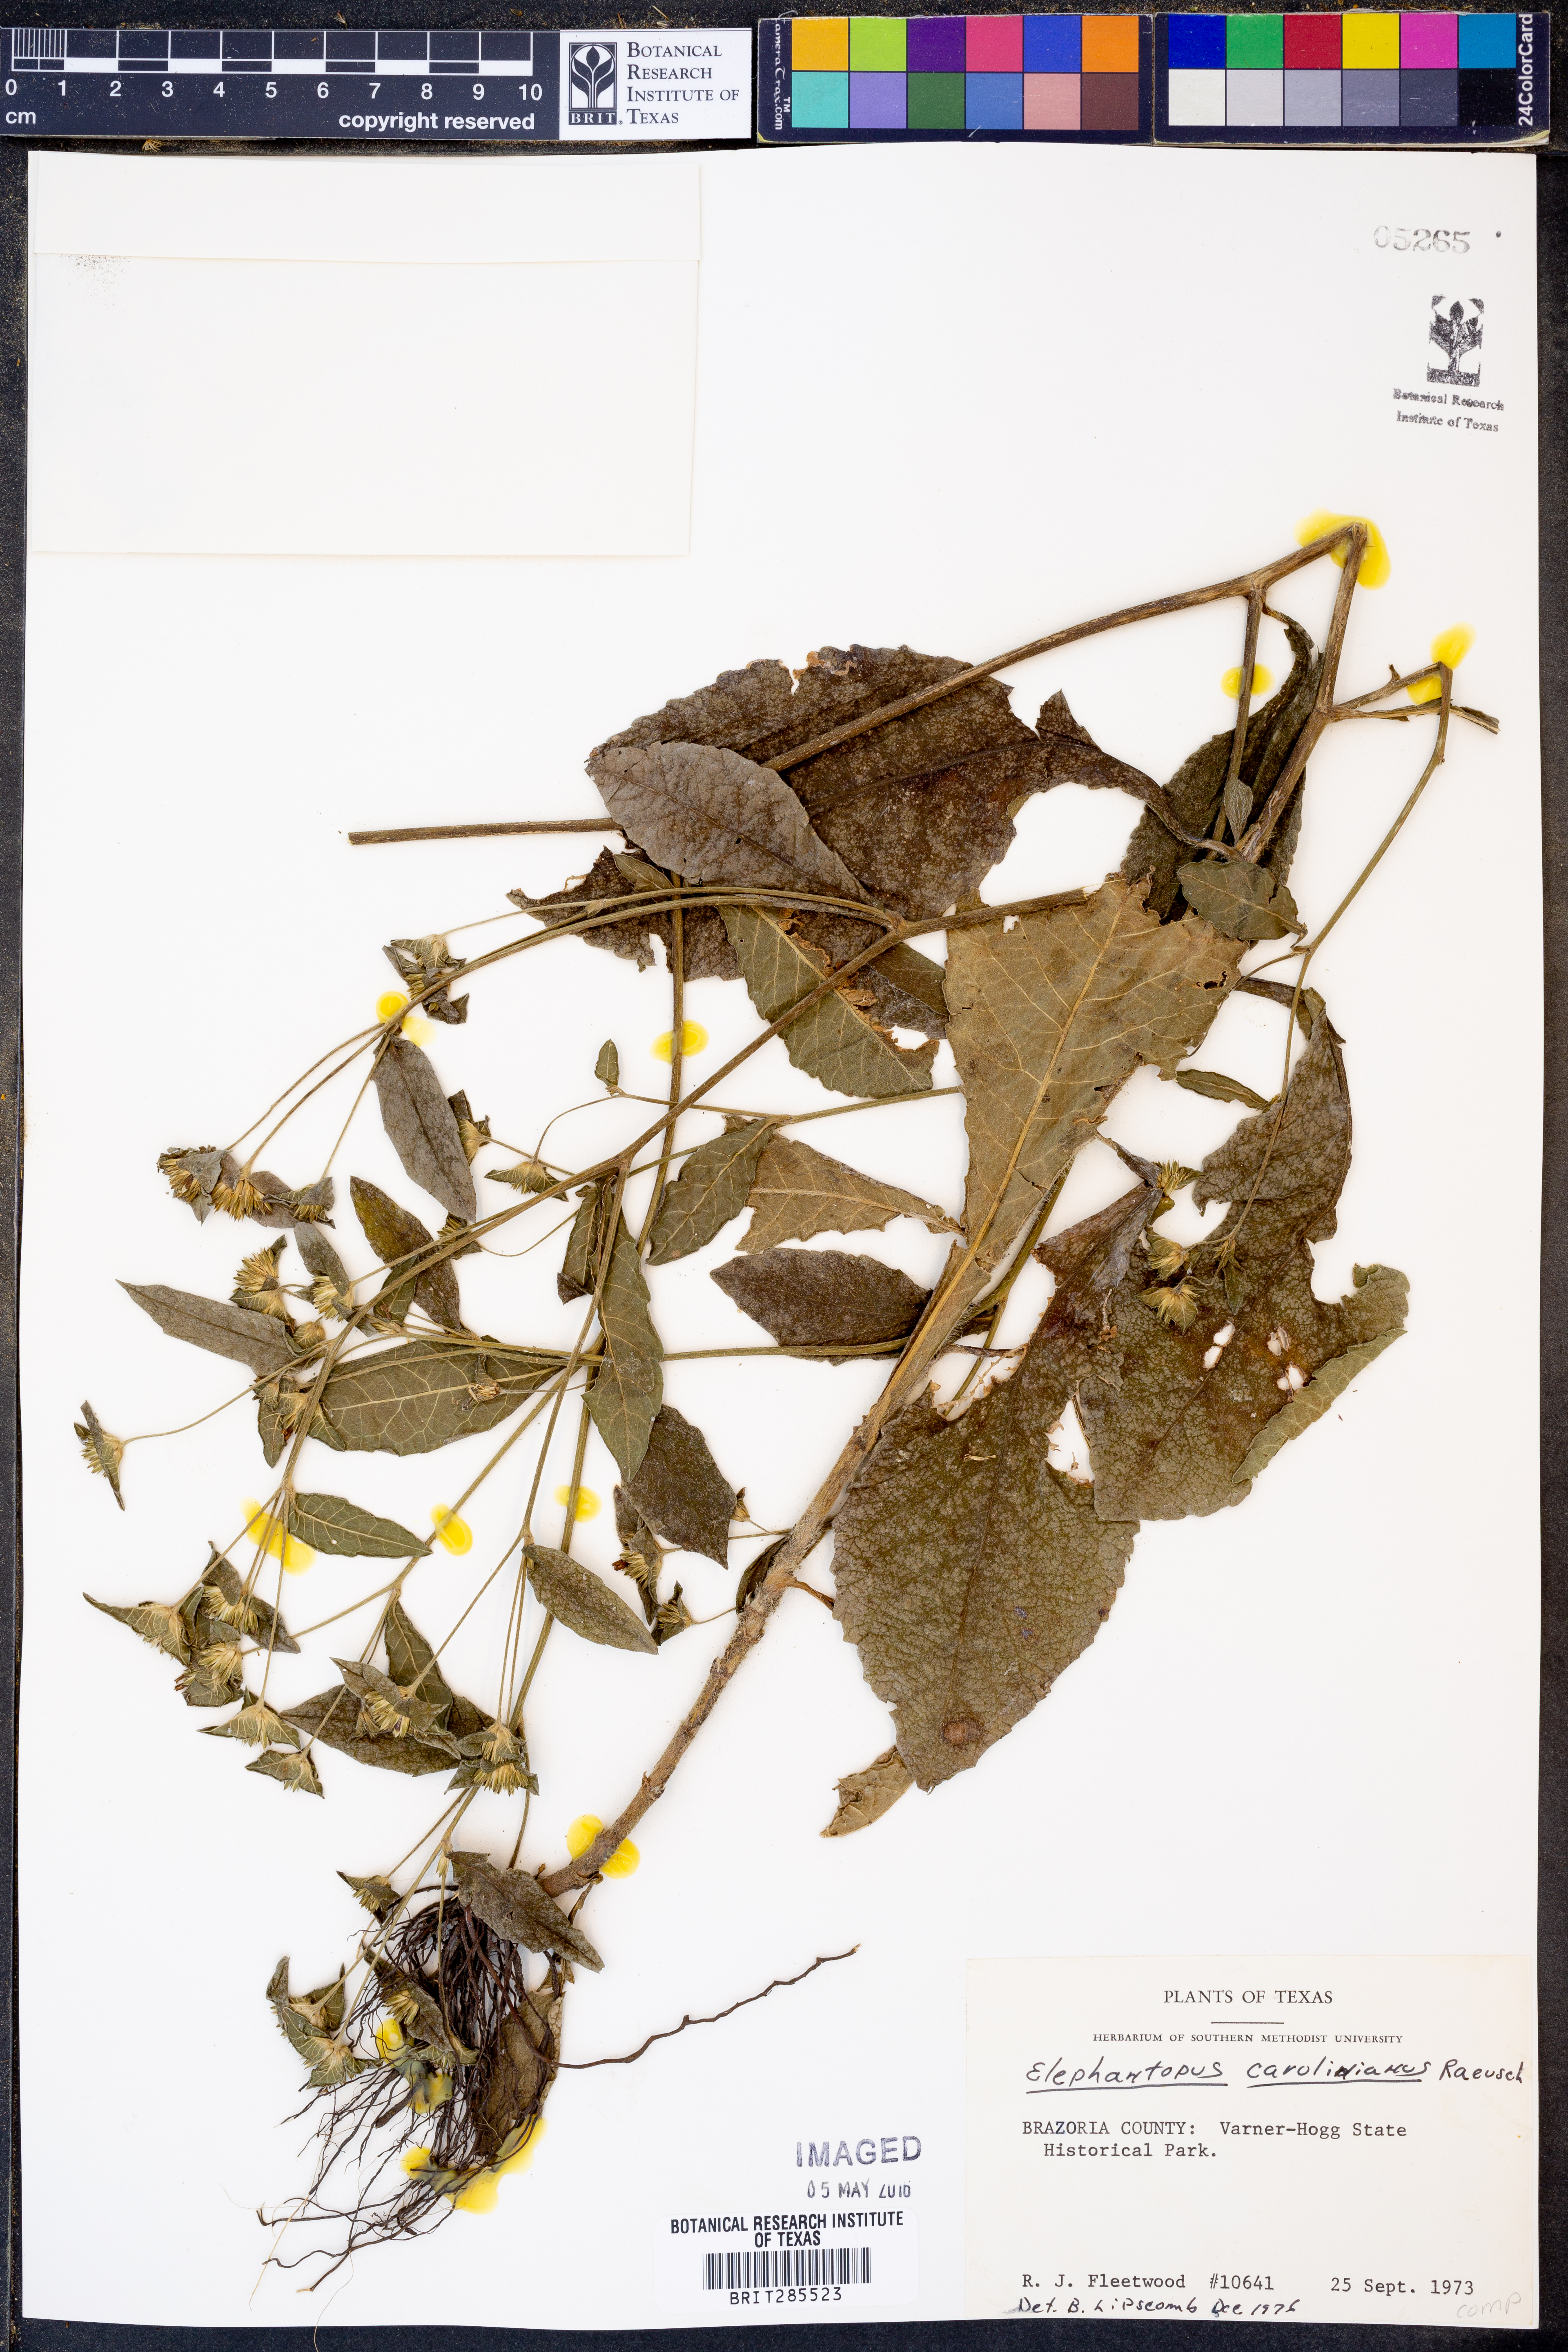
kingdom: Plantae
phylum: Tracheophyta
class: Magnoliopsida
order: Asterales
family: Asteraceae
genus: Elephantopus
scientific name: Elephantopus carolinianus
